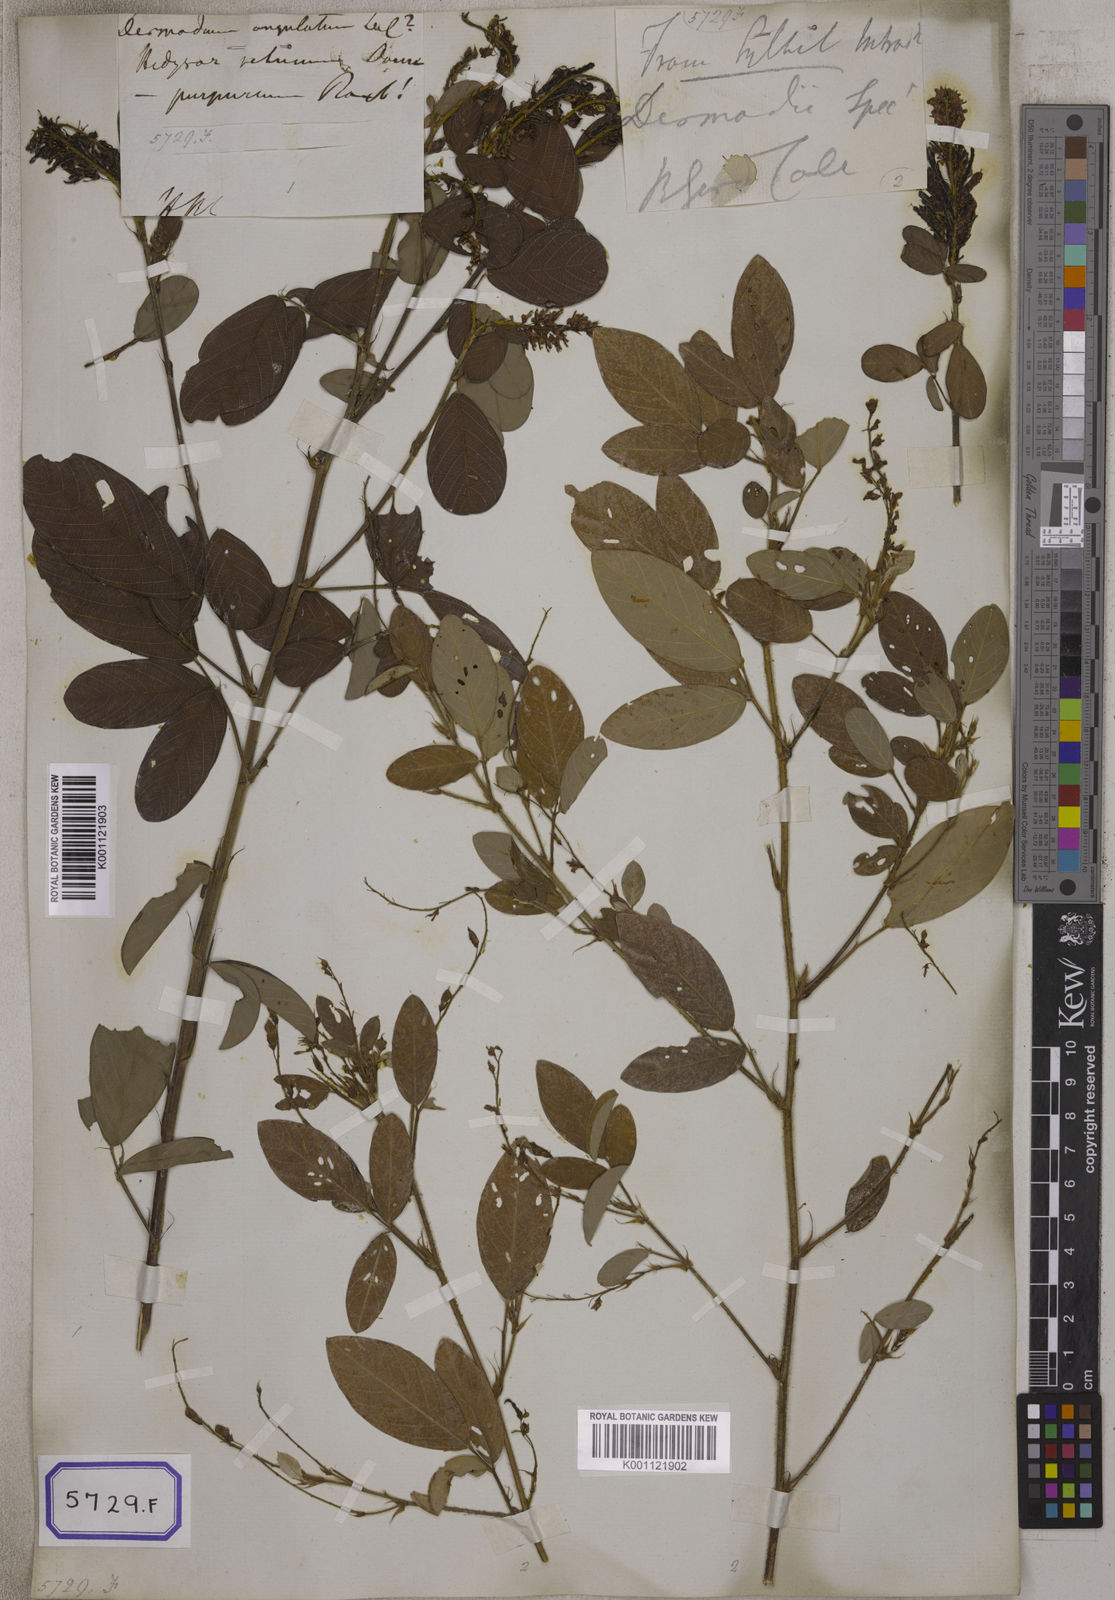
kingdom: Plantae
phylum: Tracheophyta
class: Magnoliopsida
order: Fabales
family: Fabaceae
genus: Desmodium
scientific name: Desmodium
